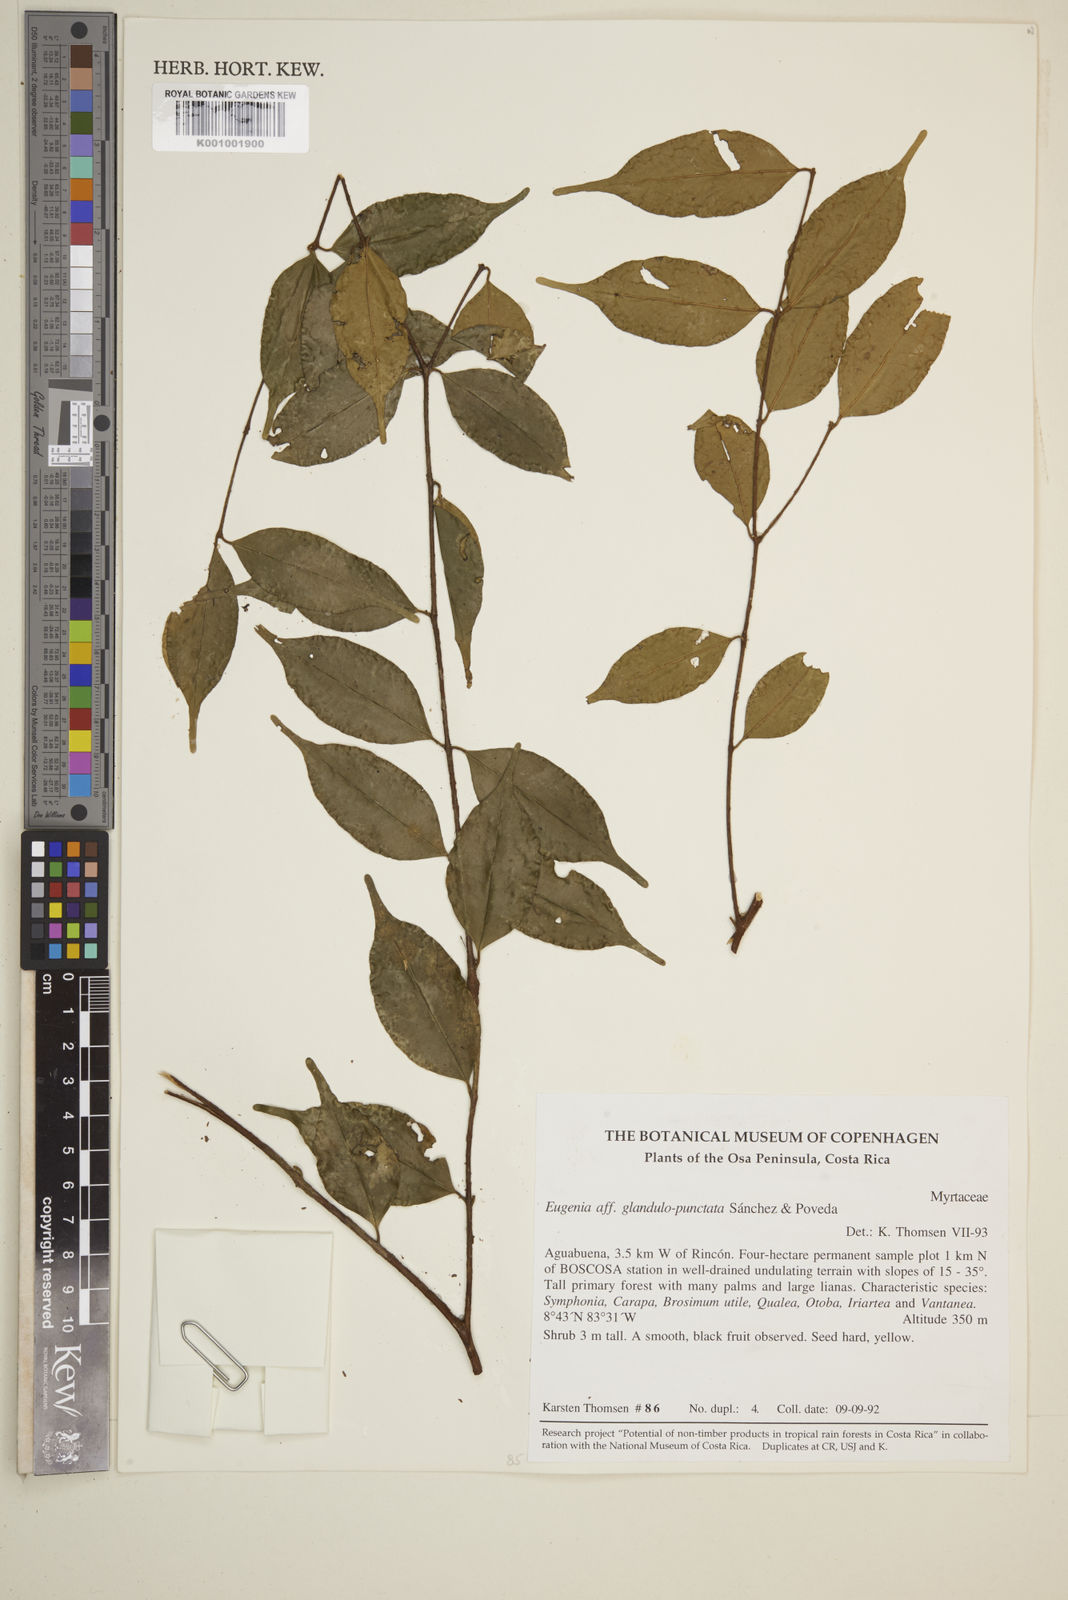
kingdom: Plantae
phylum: Tracheophyta
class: Magnoliopsida
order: Myrtales
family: Myrtaceae
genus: Eugenia
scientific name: Eugenia
